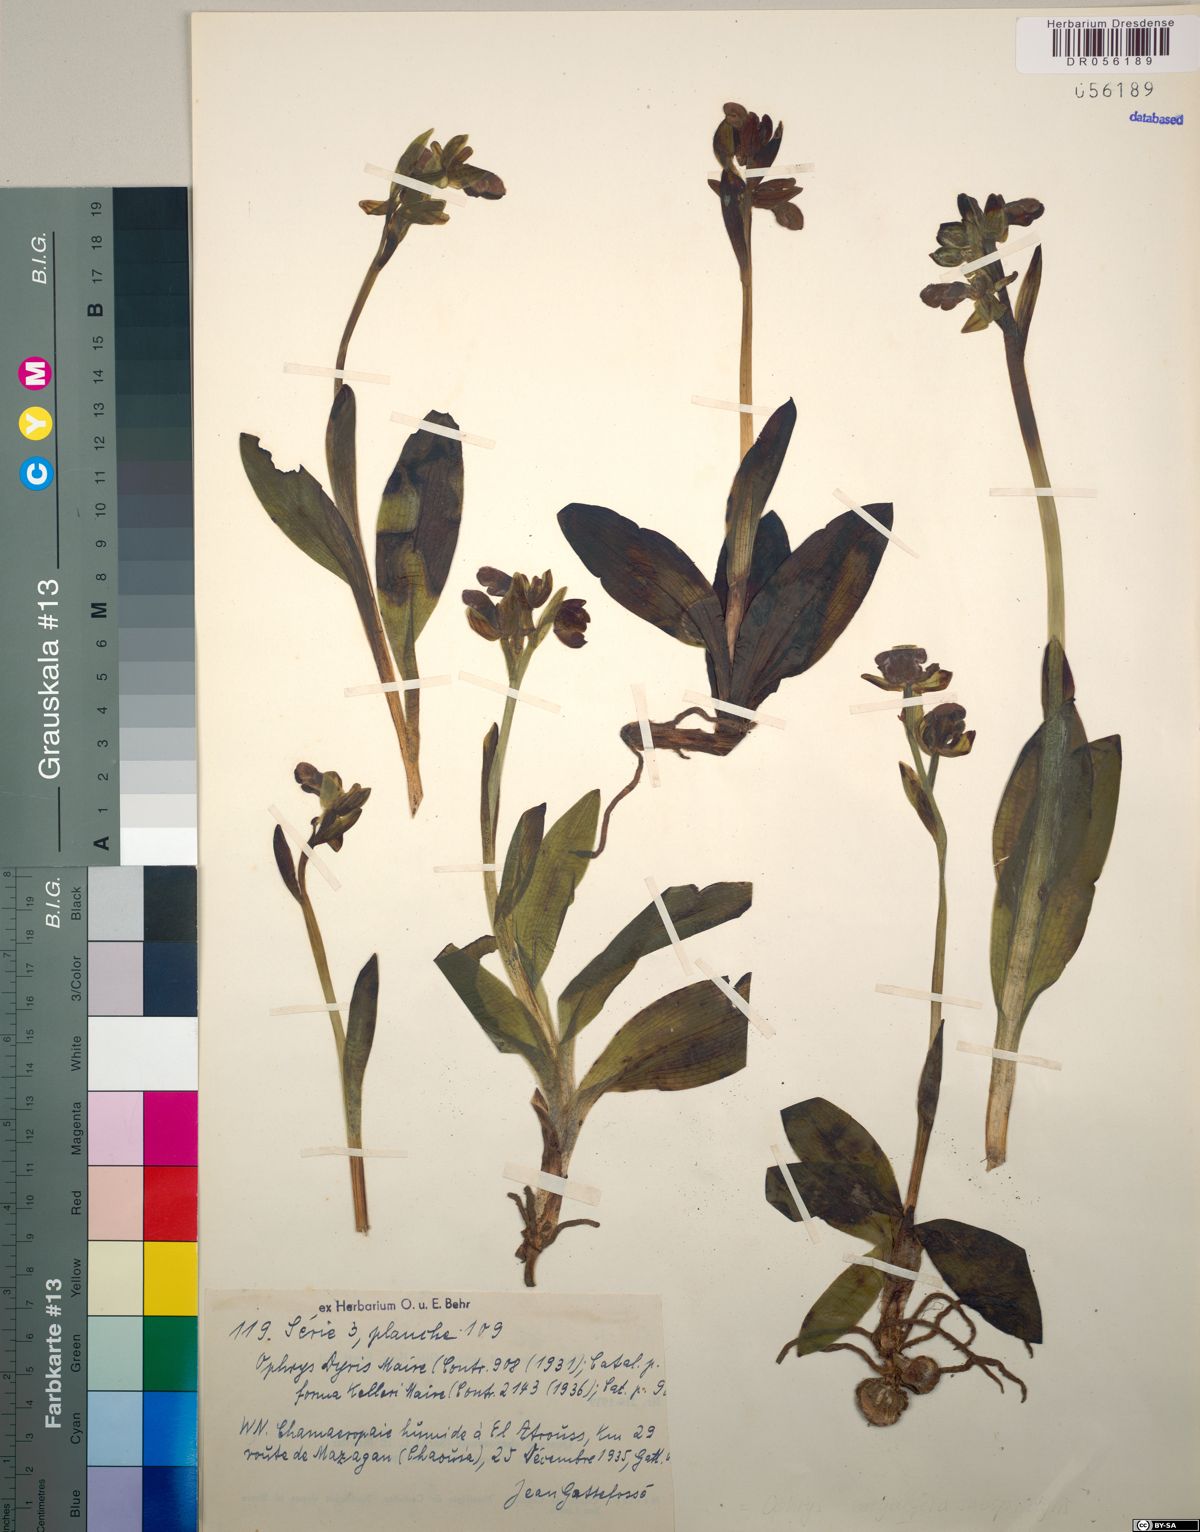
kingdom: Plantae
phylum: Tracheophyta
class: Liliopsida
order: Asparagales
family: Orchidaceae
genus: Ophrys
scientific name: Ophrys omegaifera
